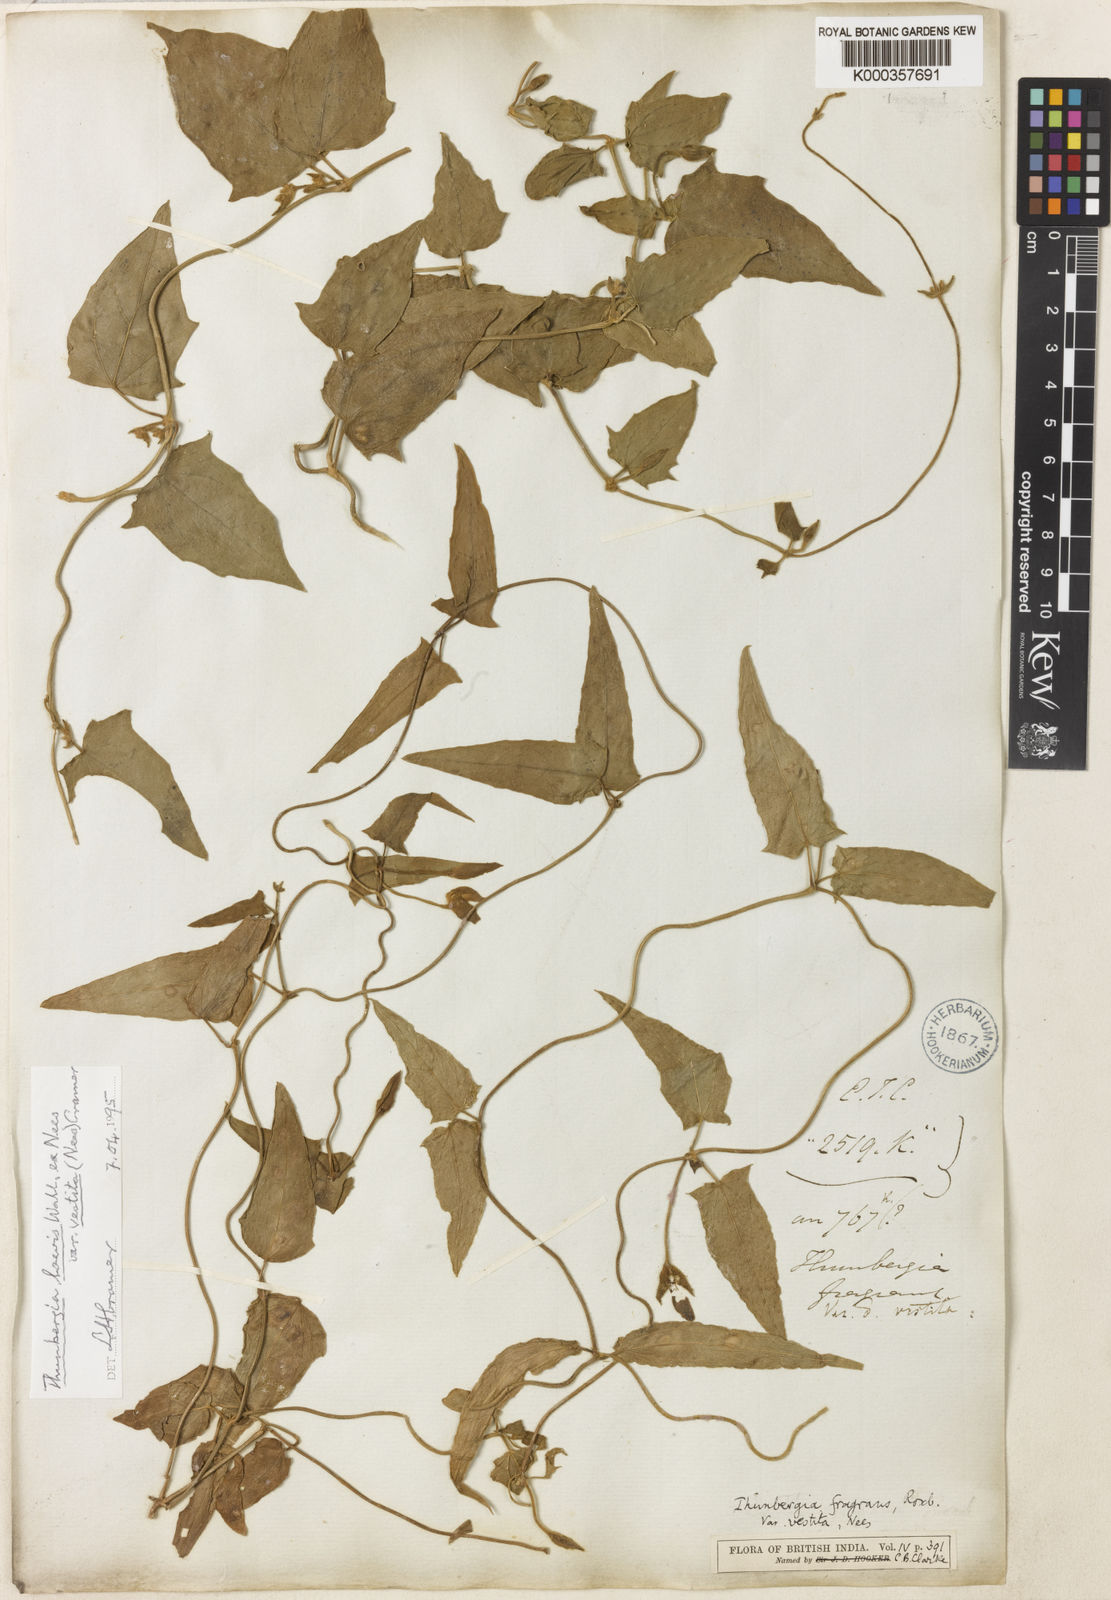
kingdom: Plantae
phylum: Tracheophyta
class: Magnoliopsida
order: Lamiales
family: Acanthaceae
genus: Thunbergia
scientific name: Thunbergia laevis
